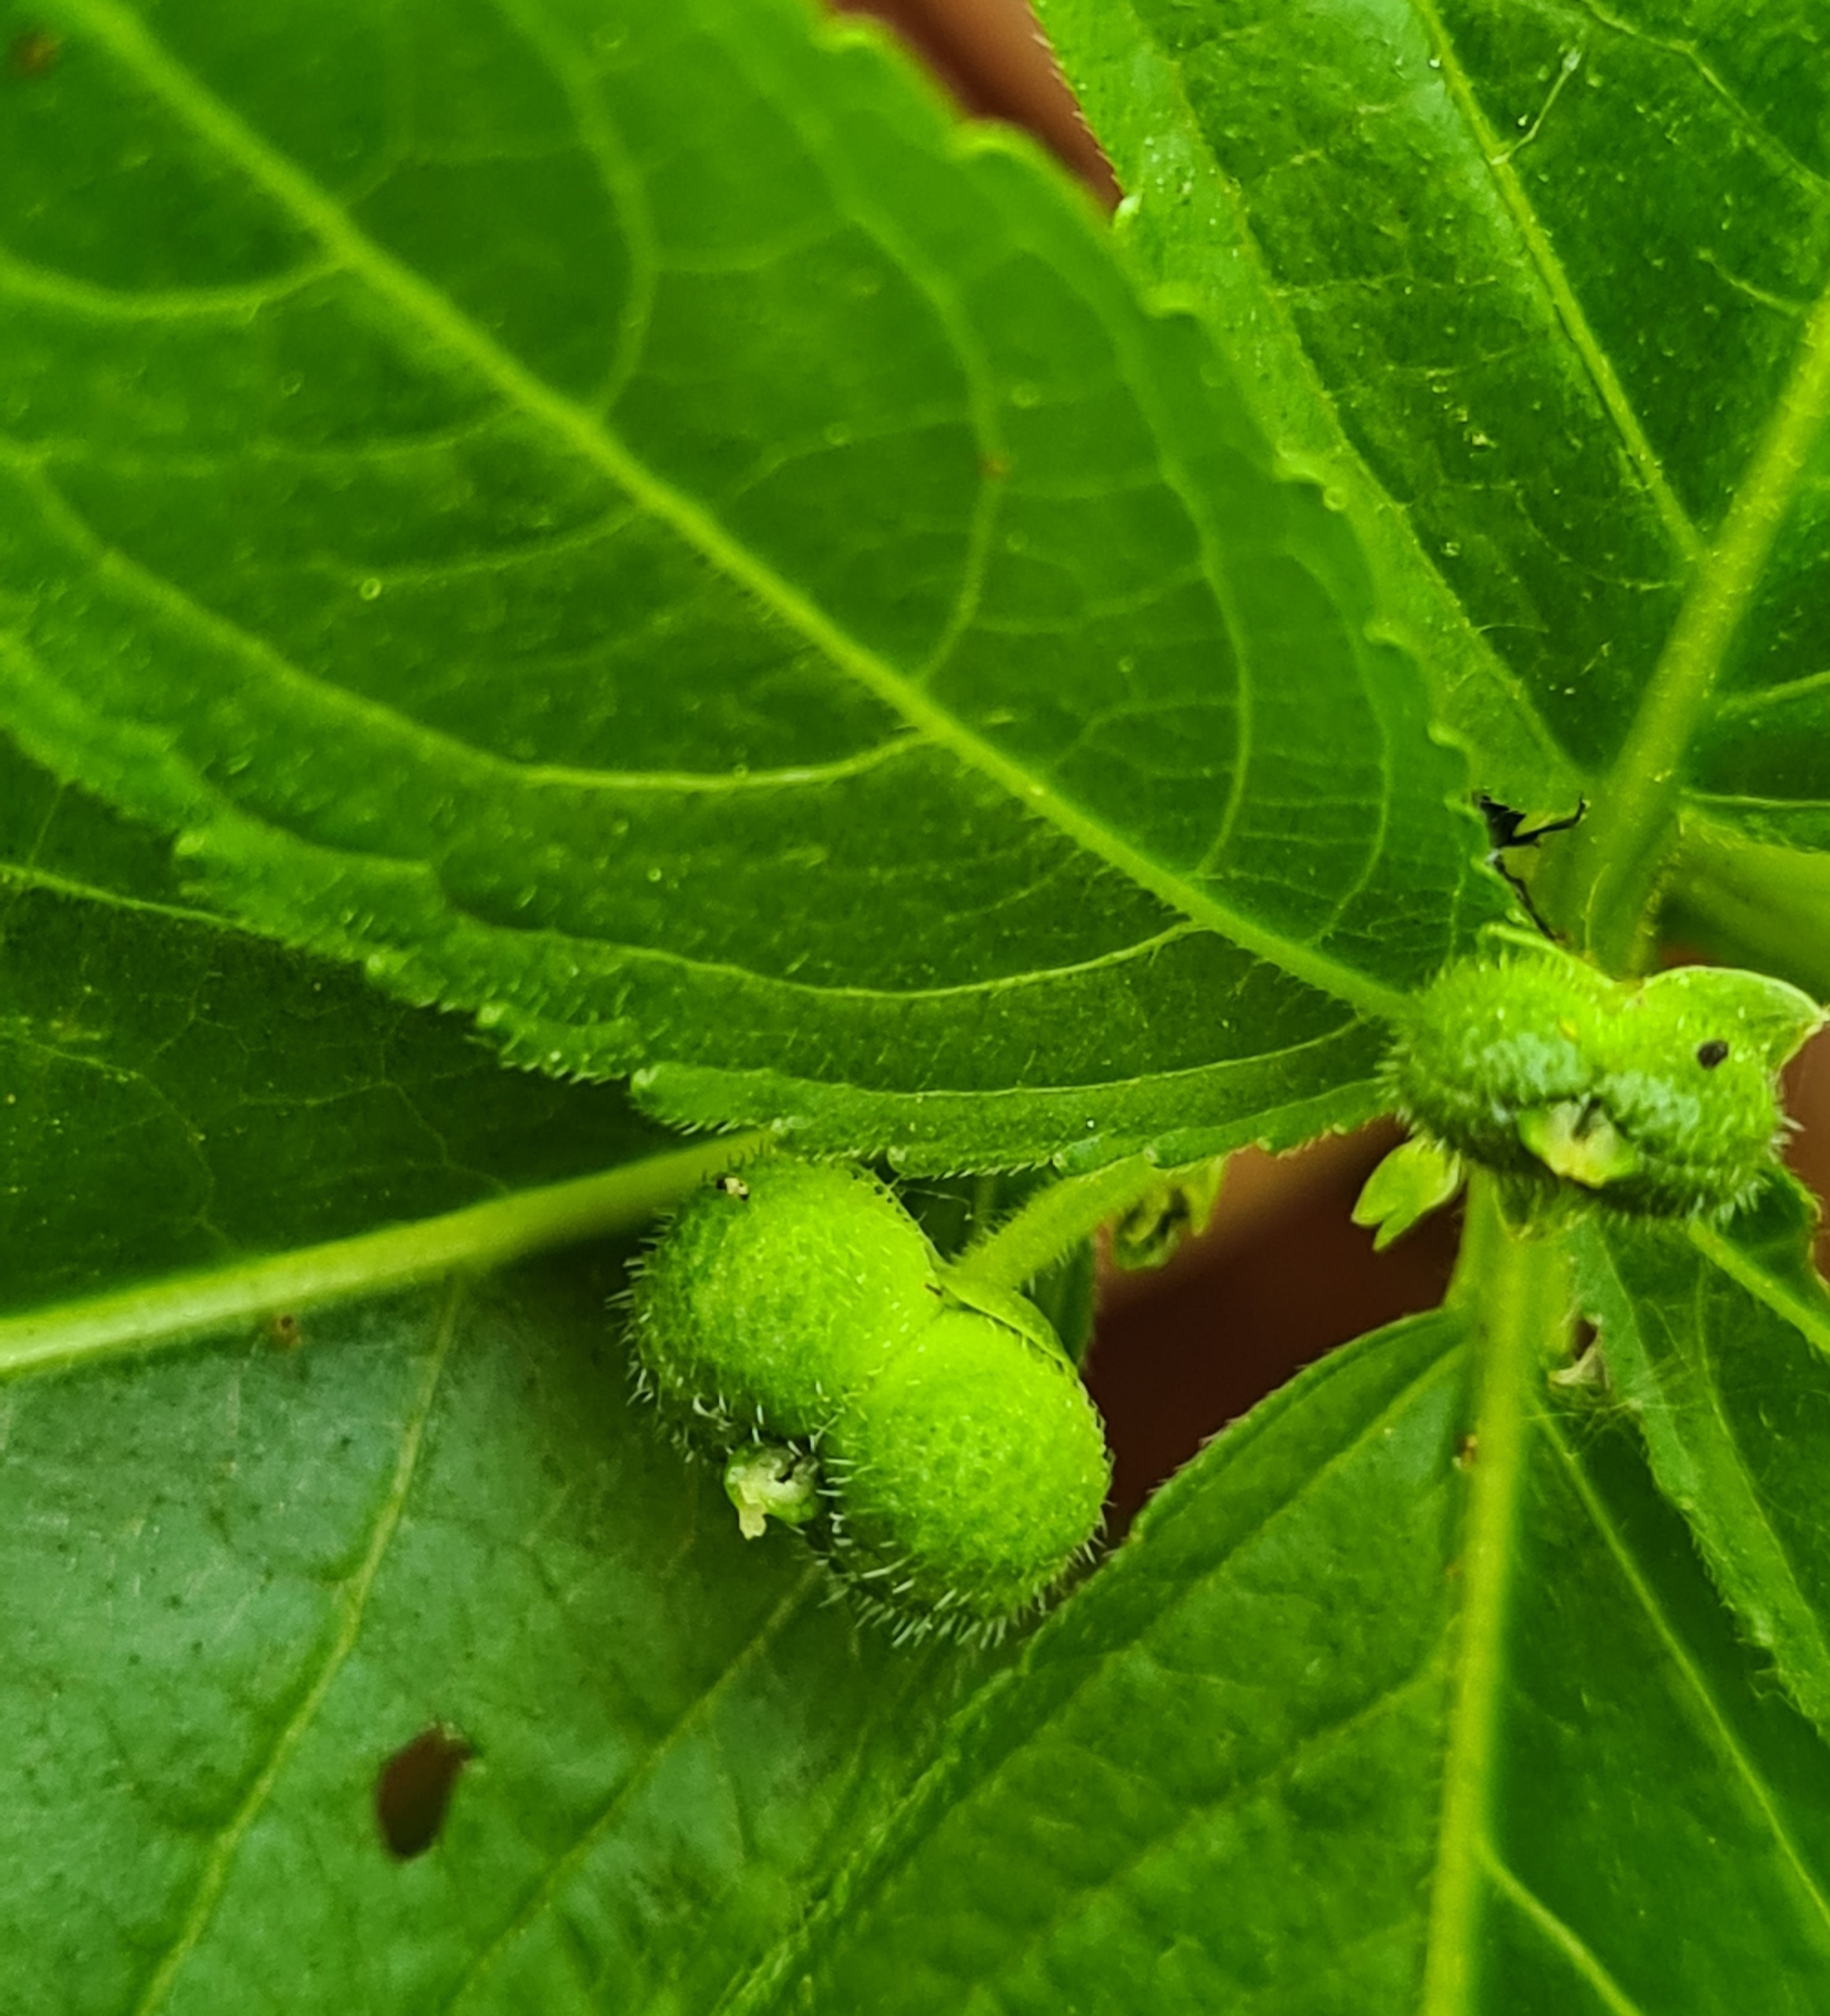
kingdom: Plantae
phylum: Tracheophyta
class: Magnoliopsida
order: Malpighiales
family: Euphorbiaceae
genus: Mercurialis
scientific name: Mercurialis perennis
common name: Almindelig bingelurt
